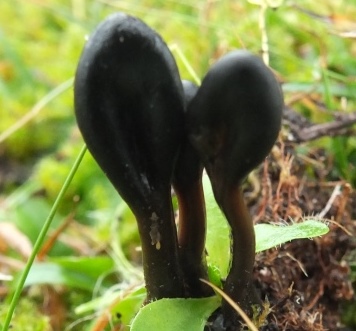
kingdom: Fungi
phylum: Ascomycota
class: Geoglossomycetes
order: Geoglossales
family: Geoglossaceae
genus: Glutinoglossum
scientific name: Glutinoglossum glutinosum
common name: slimet jordtunge
